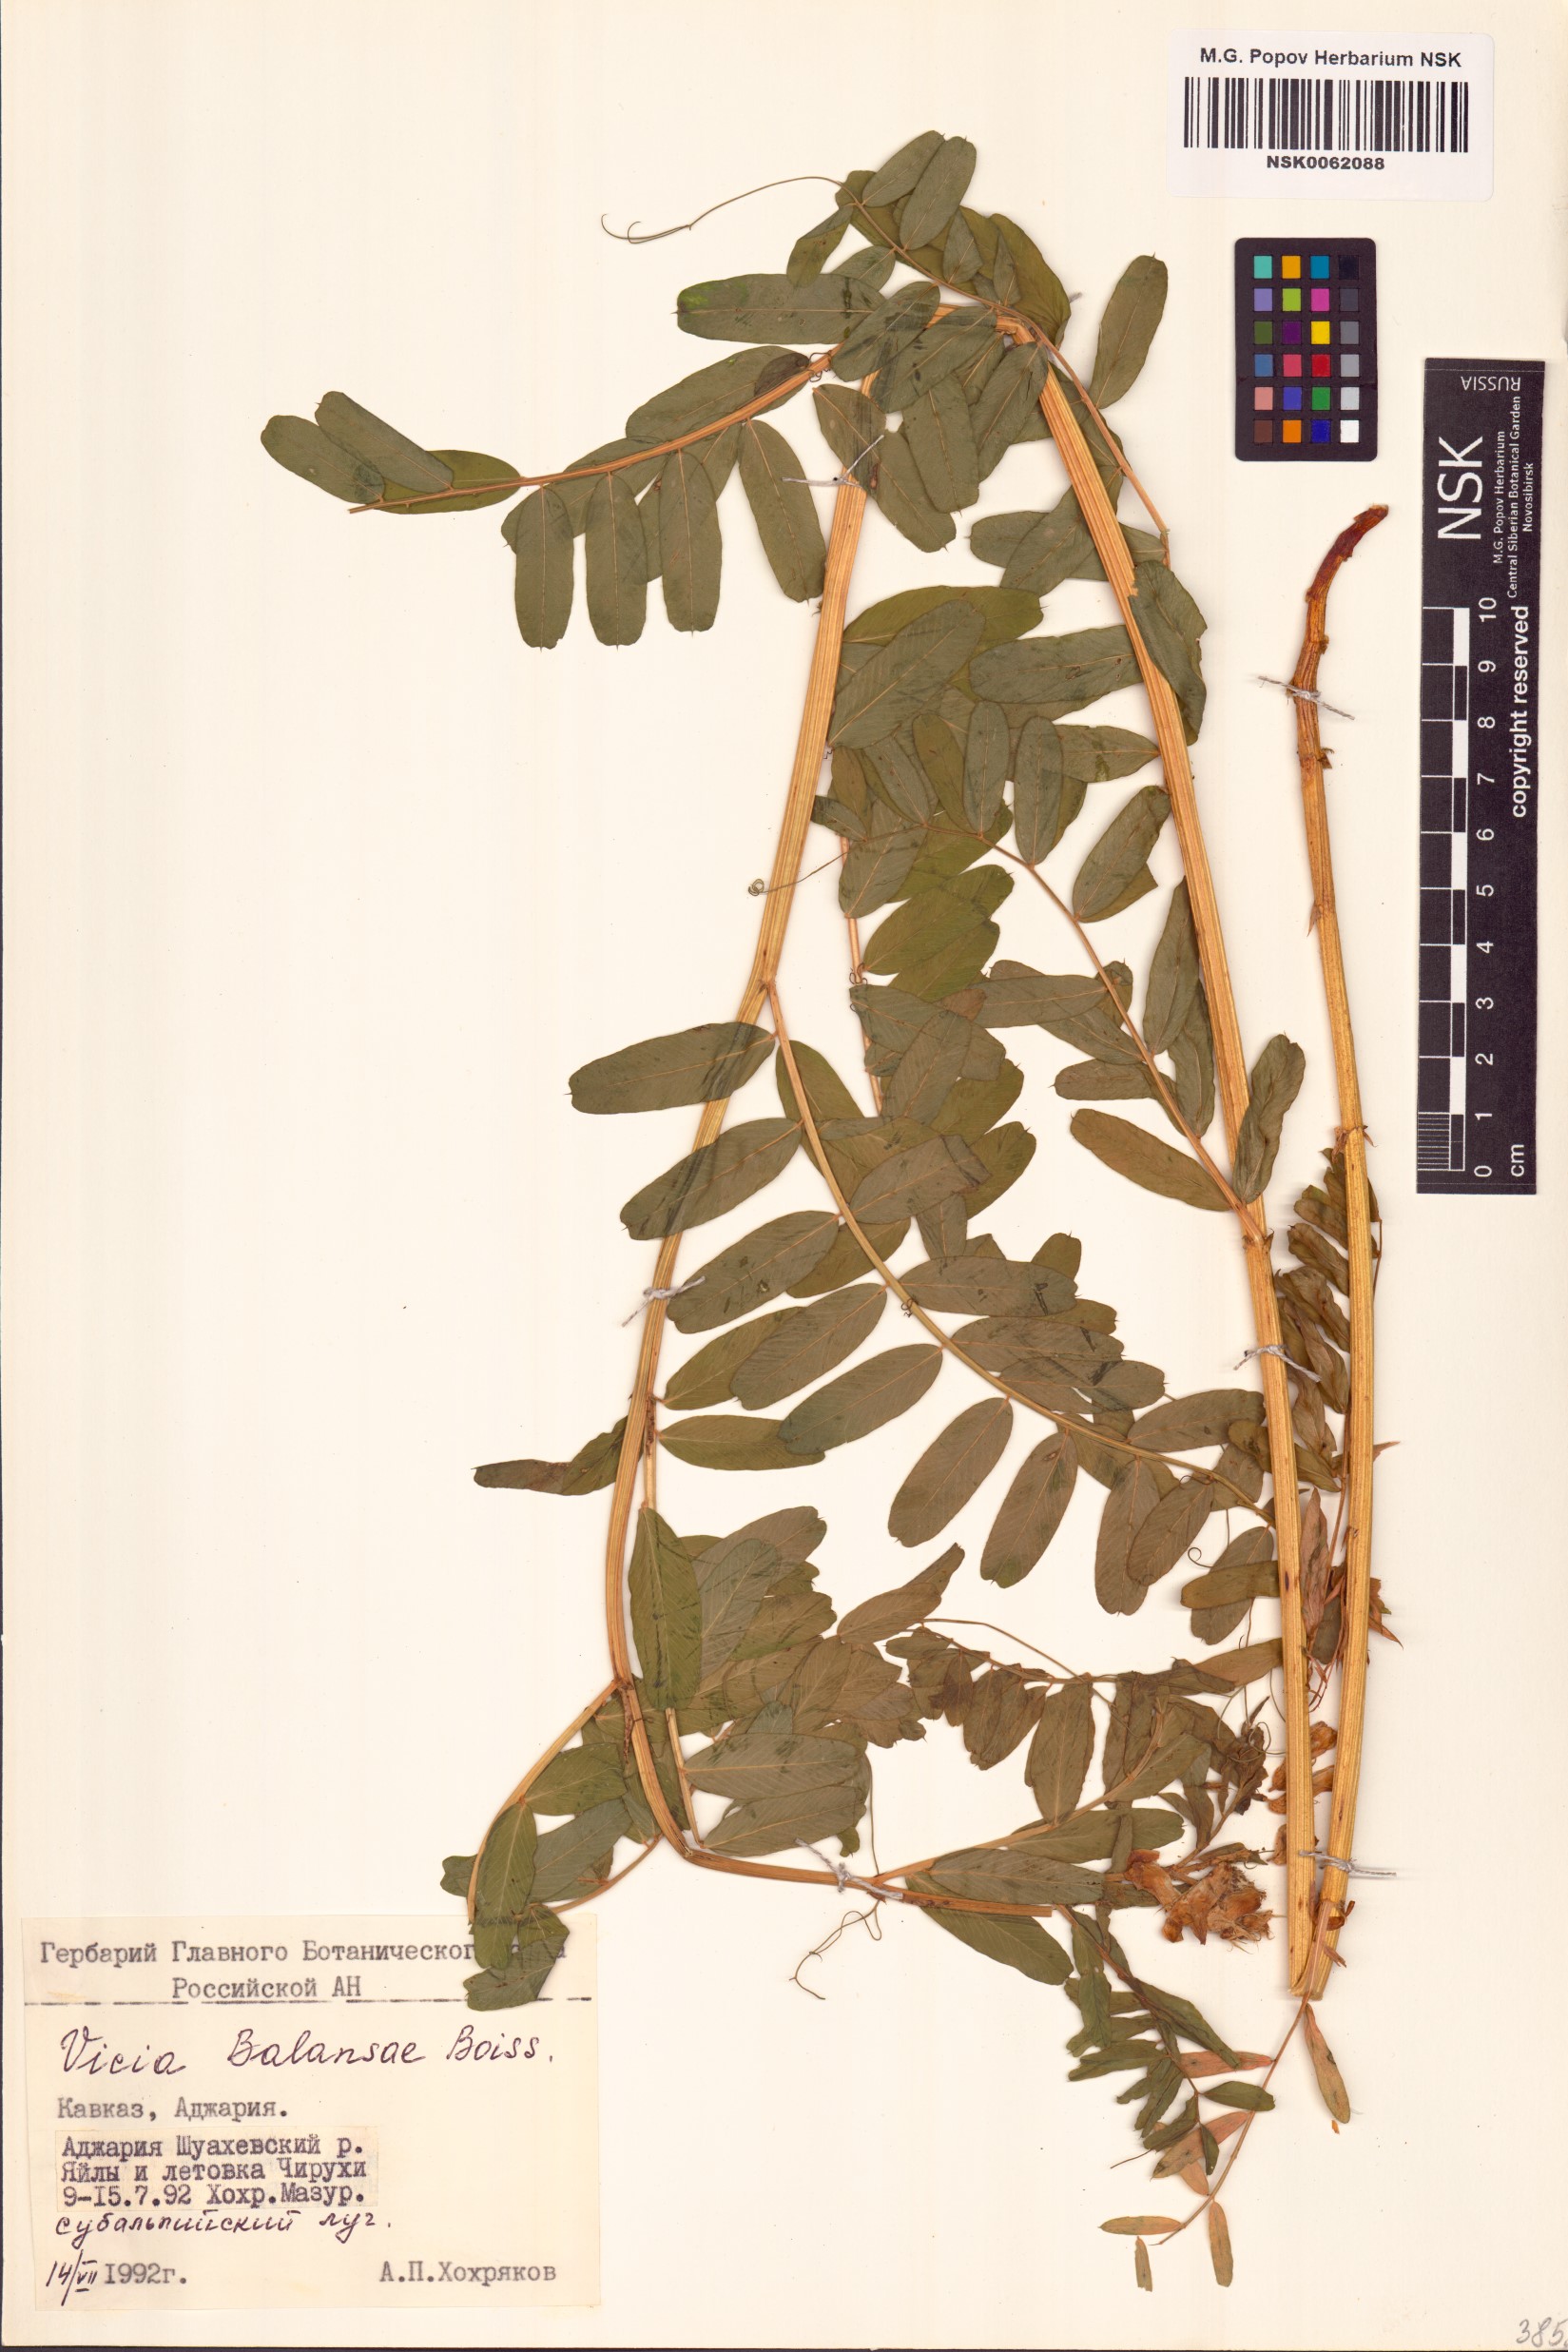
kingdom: Plantae
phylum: Tracheophyta
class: Magnoliopsida
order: Fabales
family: Fabaceae
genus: Vicia
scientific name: Vicia balansae
